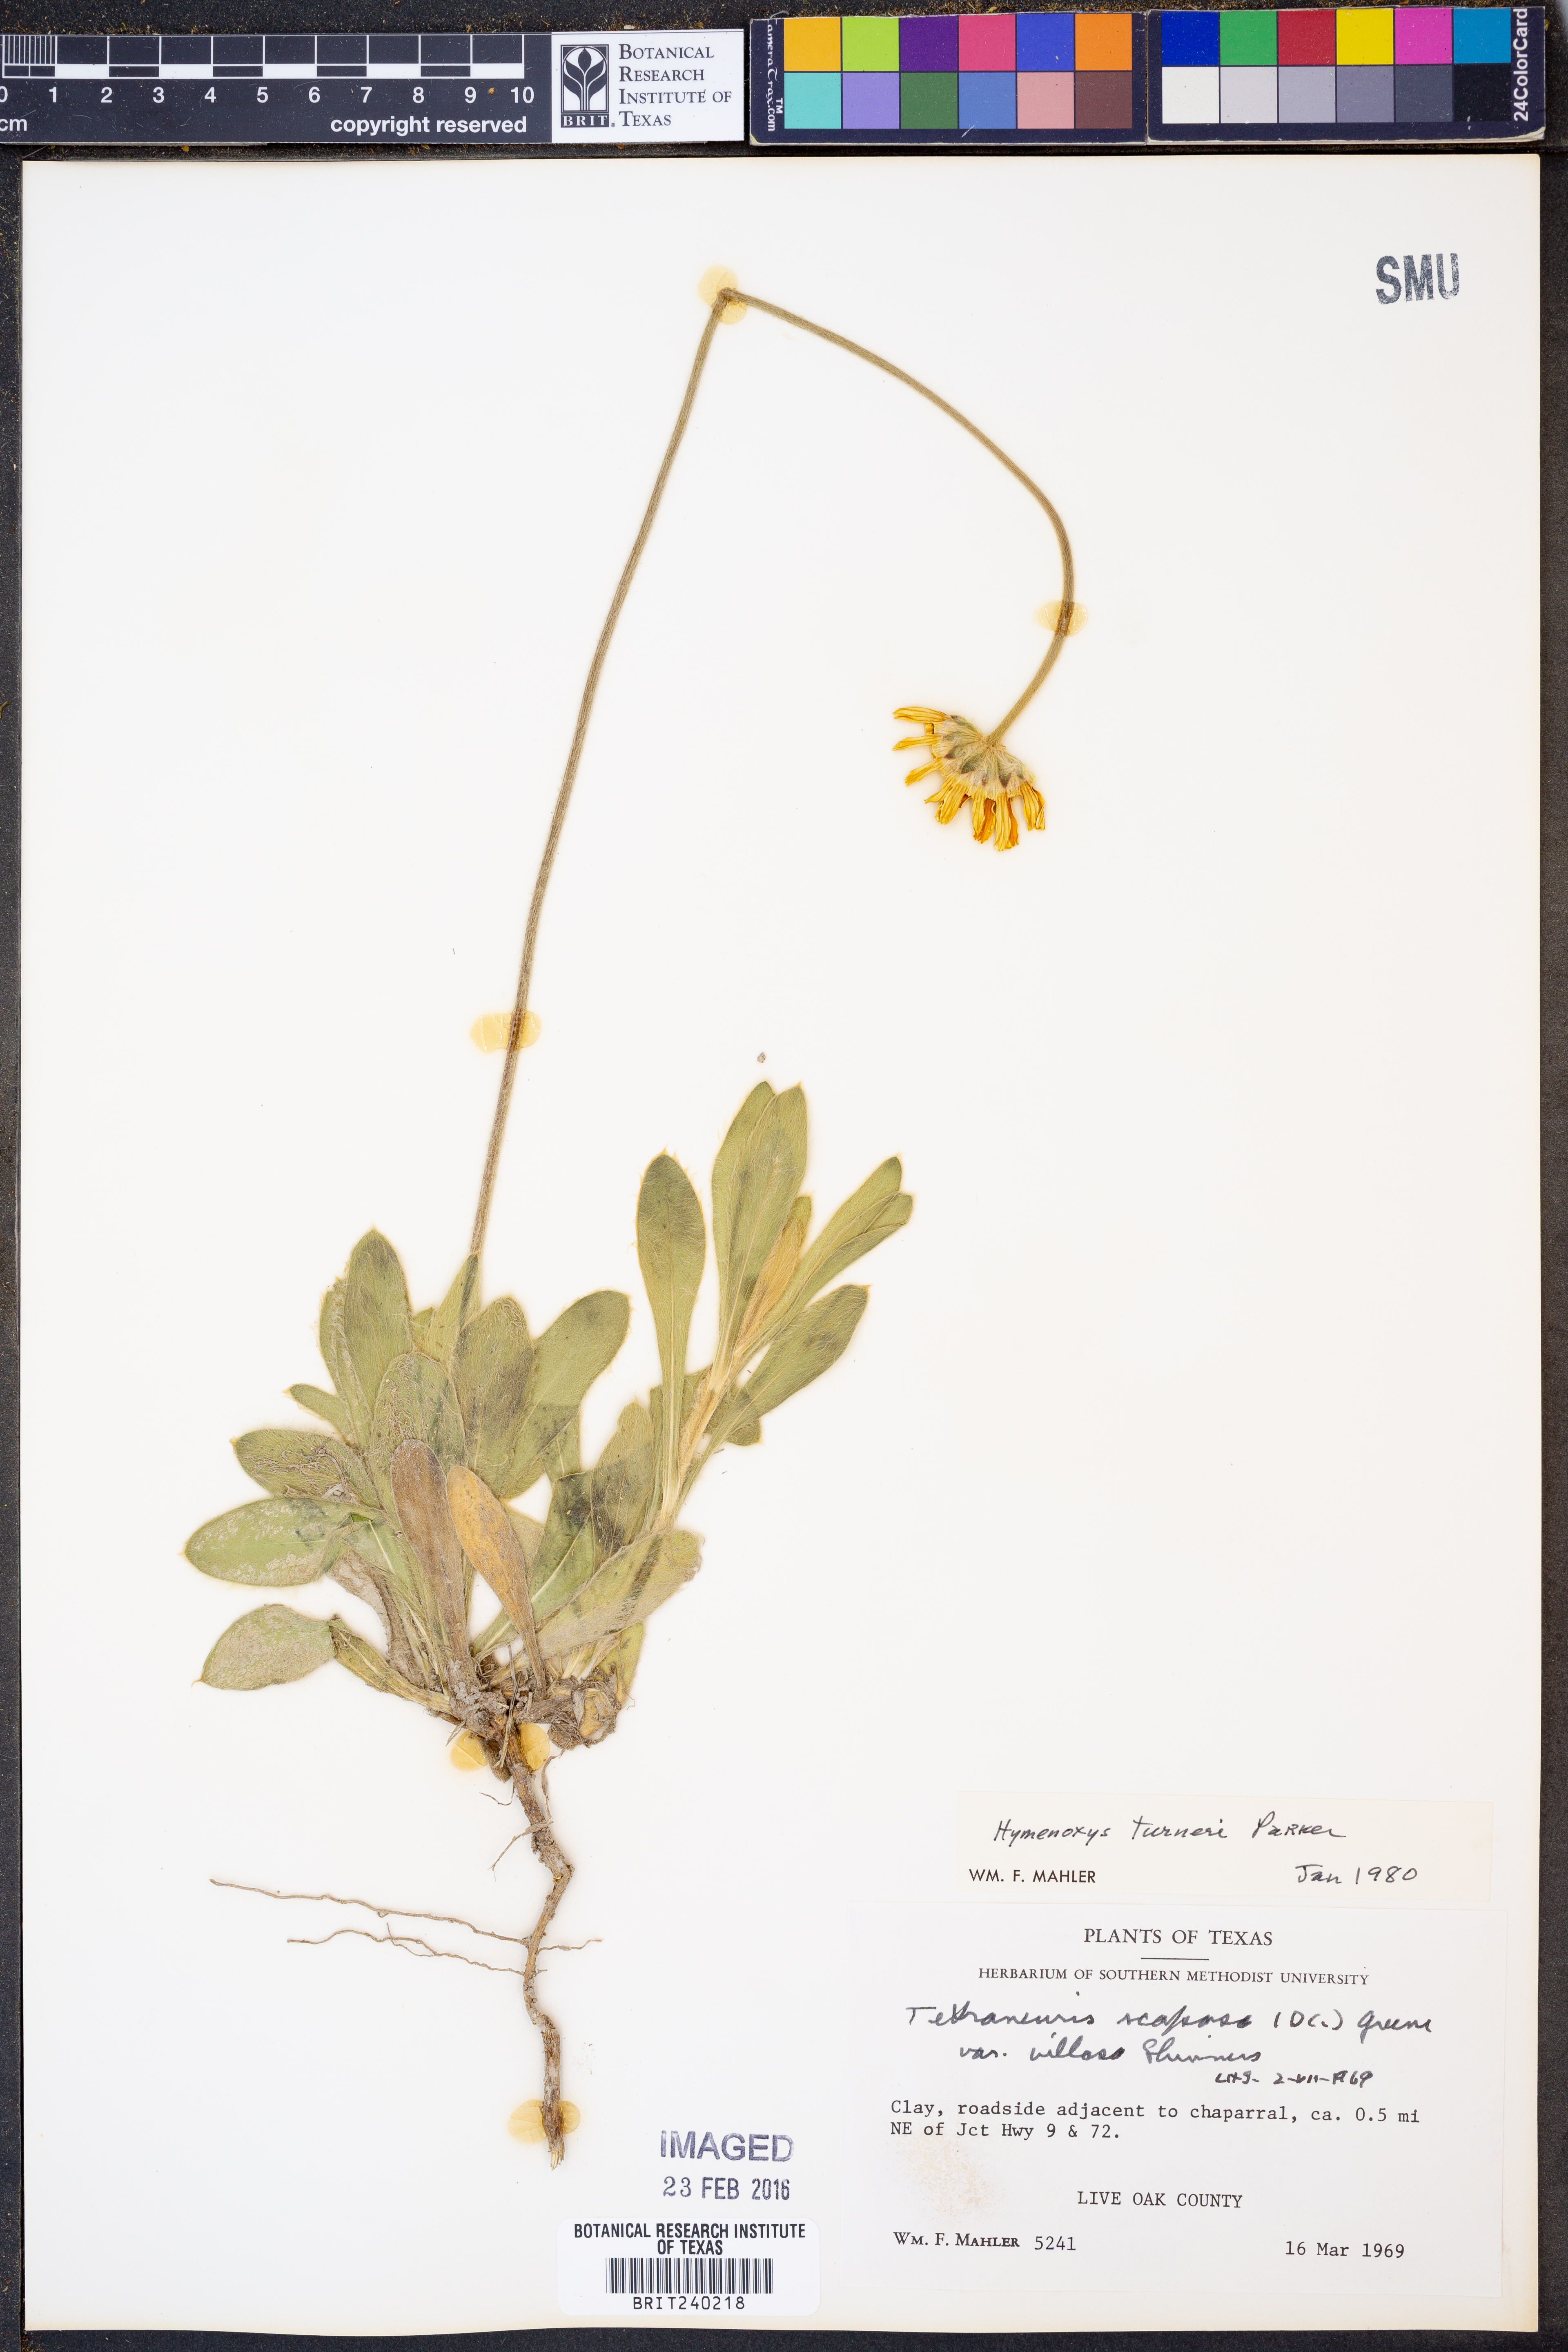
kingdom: Plantae
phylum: Tracheophyta
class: Magnoliopsida
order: Asterales
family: Asteraceae
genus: Tetraneuris
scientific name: Tetraneuris turneri
